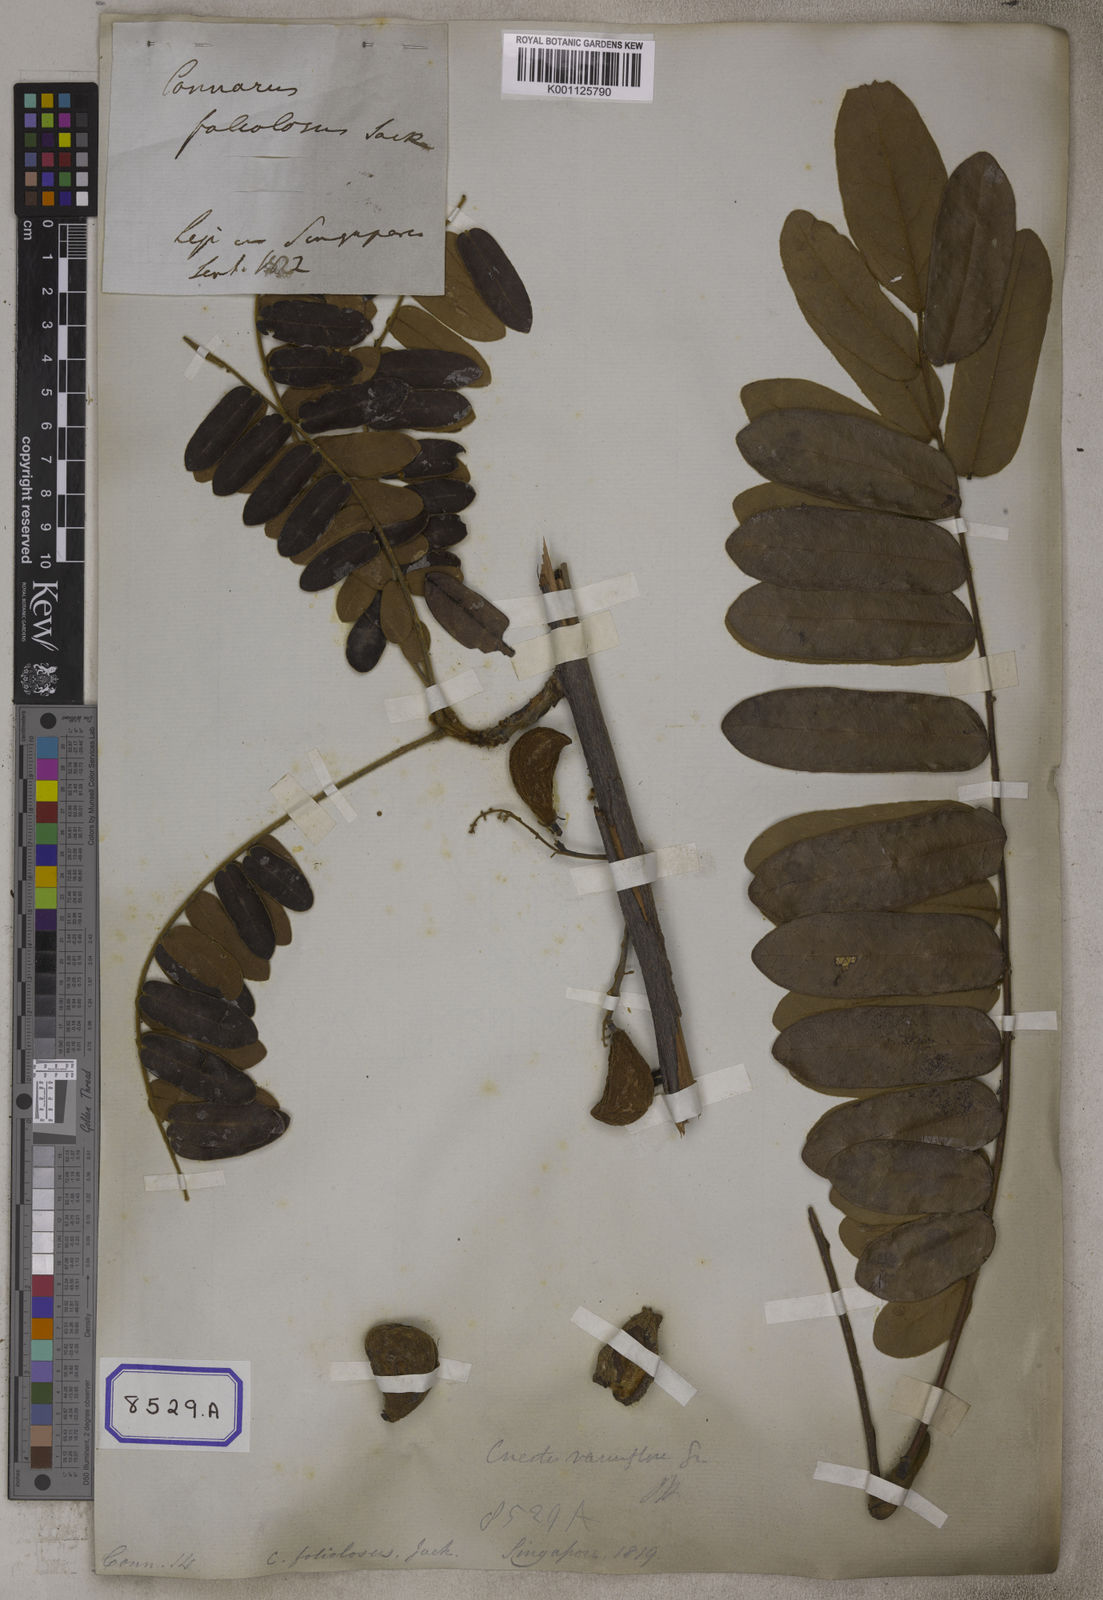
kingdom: Plantae
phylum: Tracheophyta
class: Magnoliopsida
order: Oxalidales
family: Connaraceae
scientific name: Connaraceae
